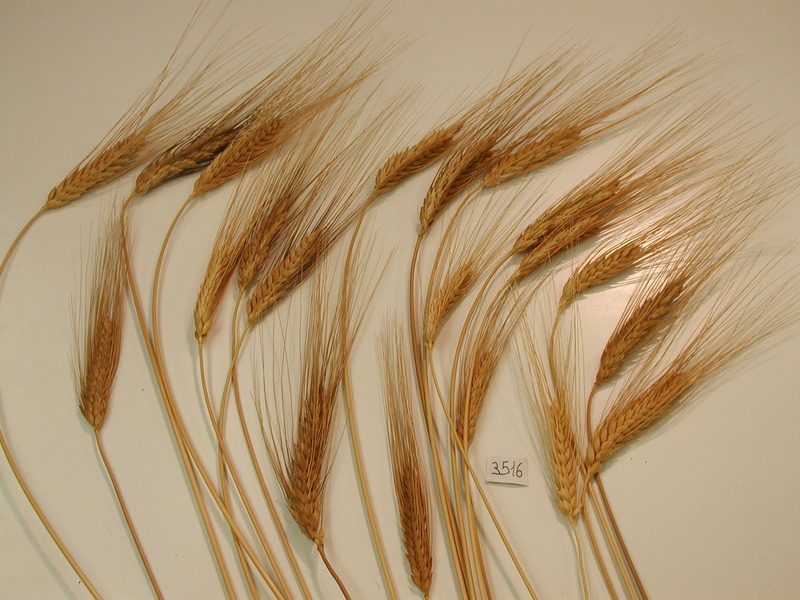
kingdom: Plantae
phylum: Tracheophyta
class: Liliopsida
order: Poales
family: Poaceae
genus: Triticum
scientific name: Triticum durum
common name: Wheat
